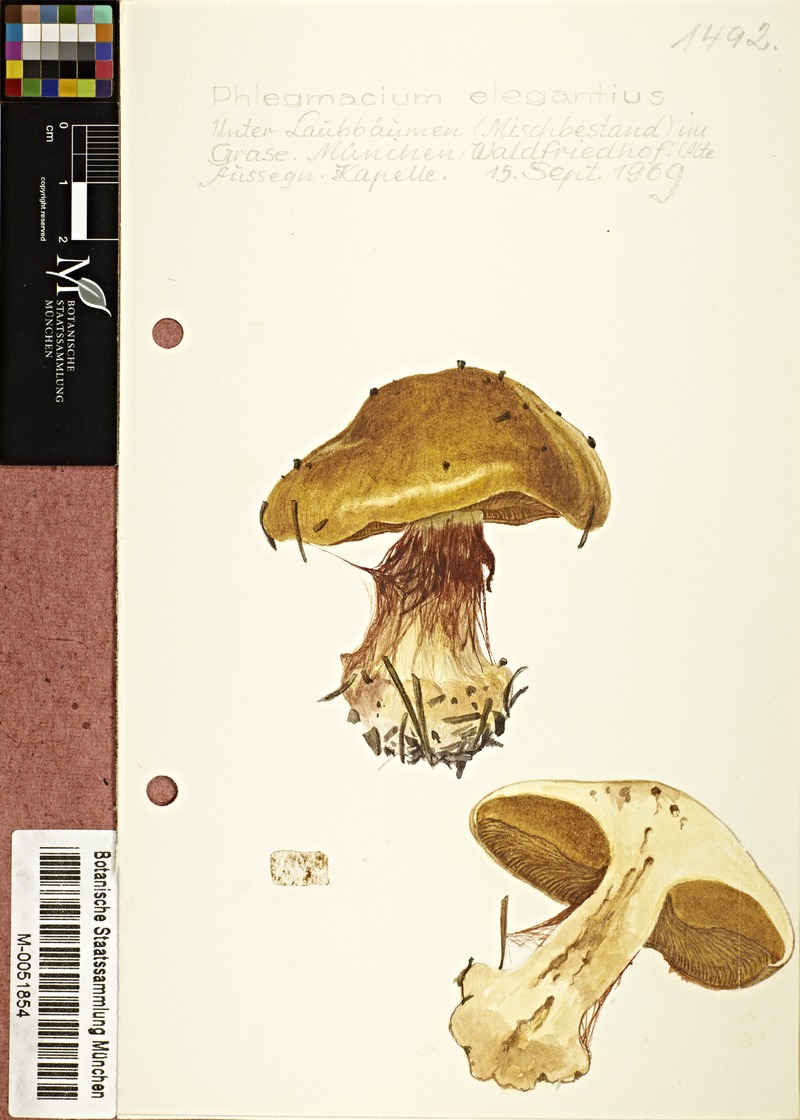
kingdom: Fungi
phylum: Basidiomycota
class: Agaricomycetes
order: Agaricales
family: Cortinariaceae
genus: Calonarius
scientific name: Calonarius elegantior
